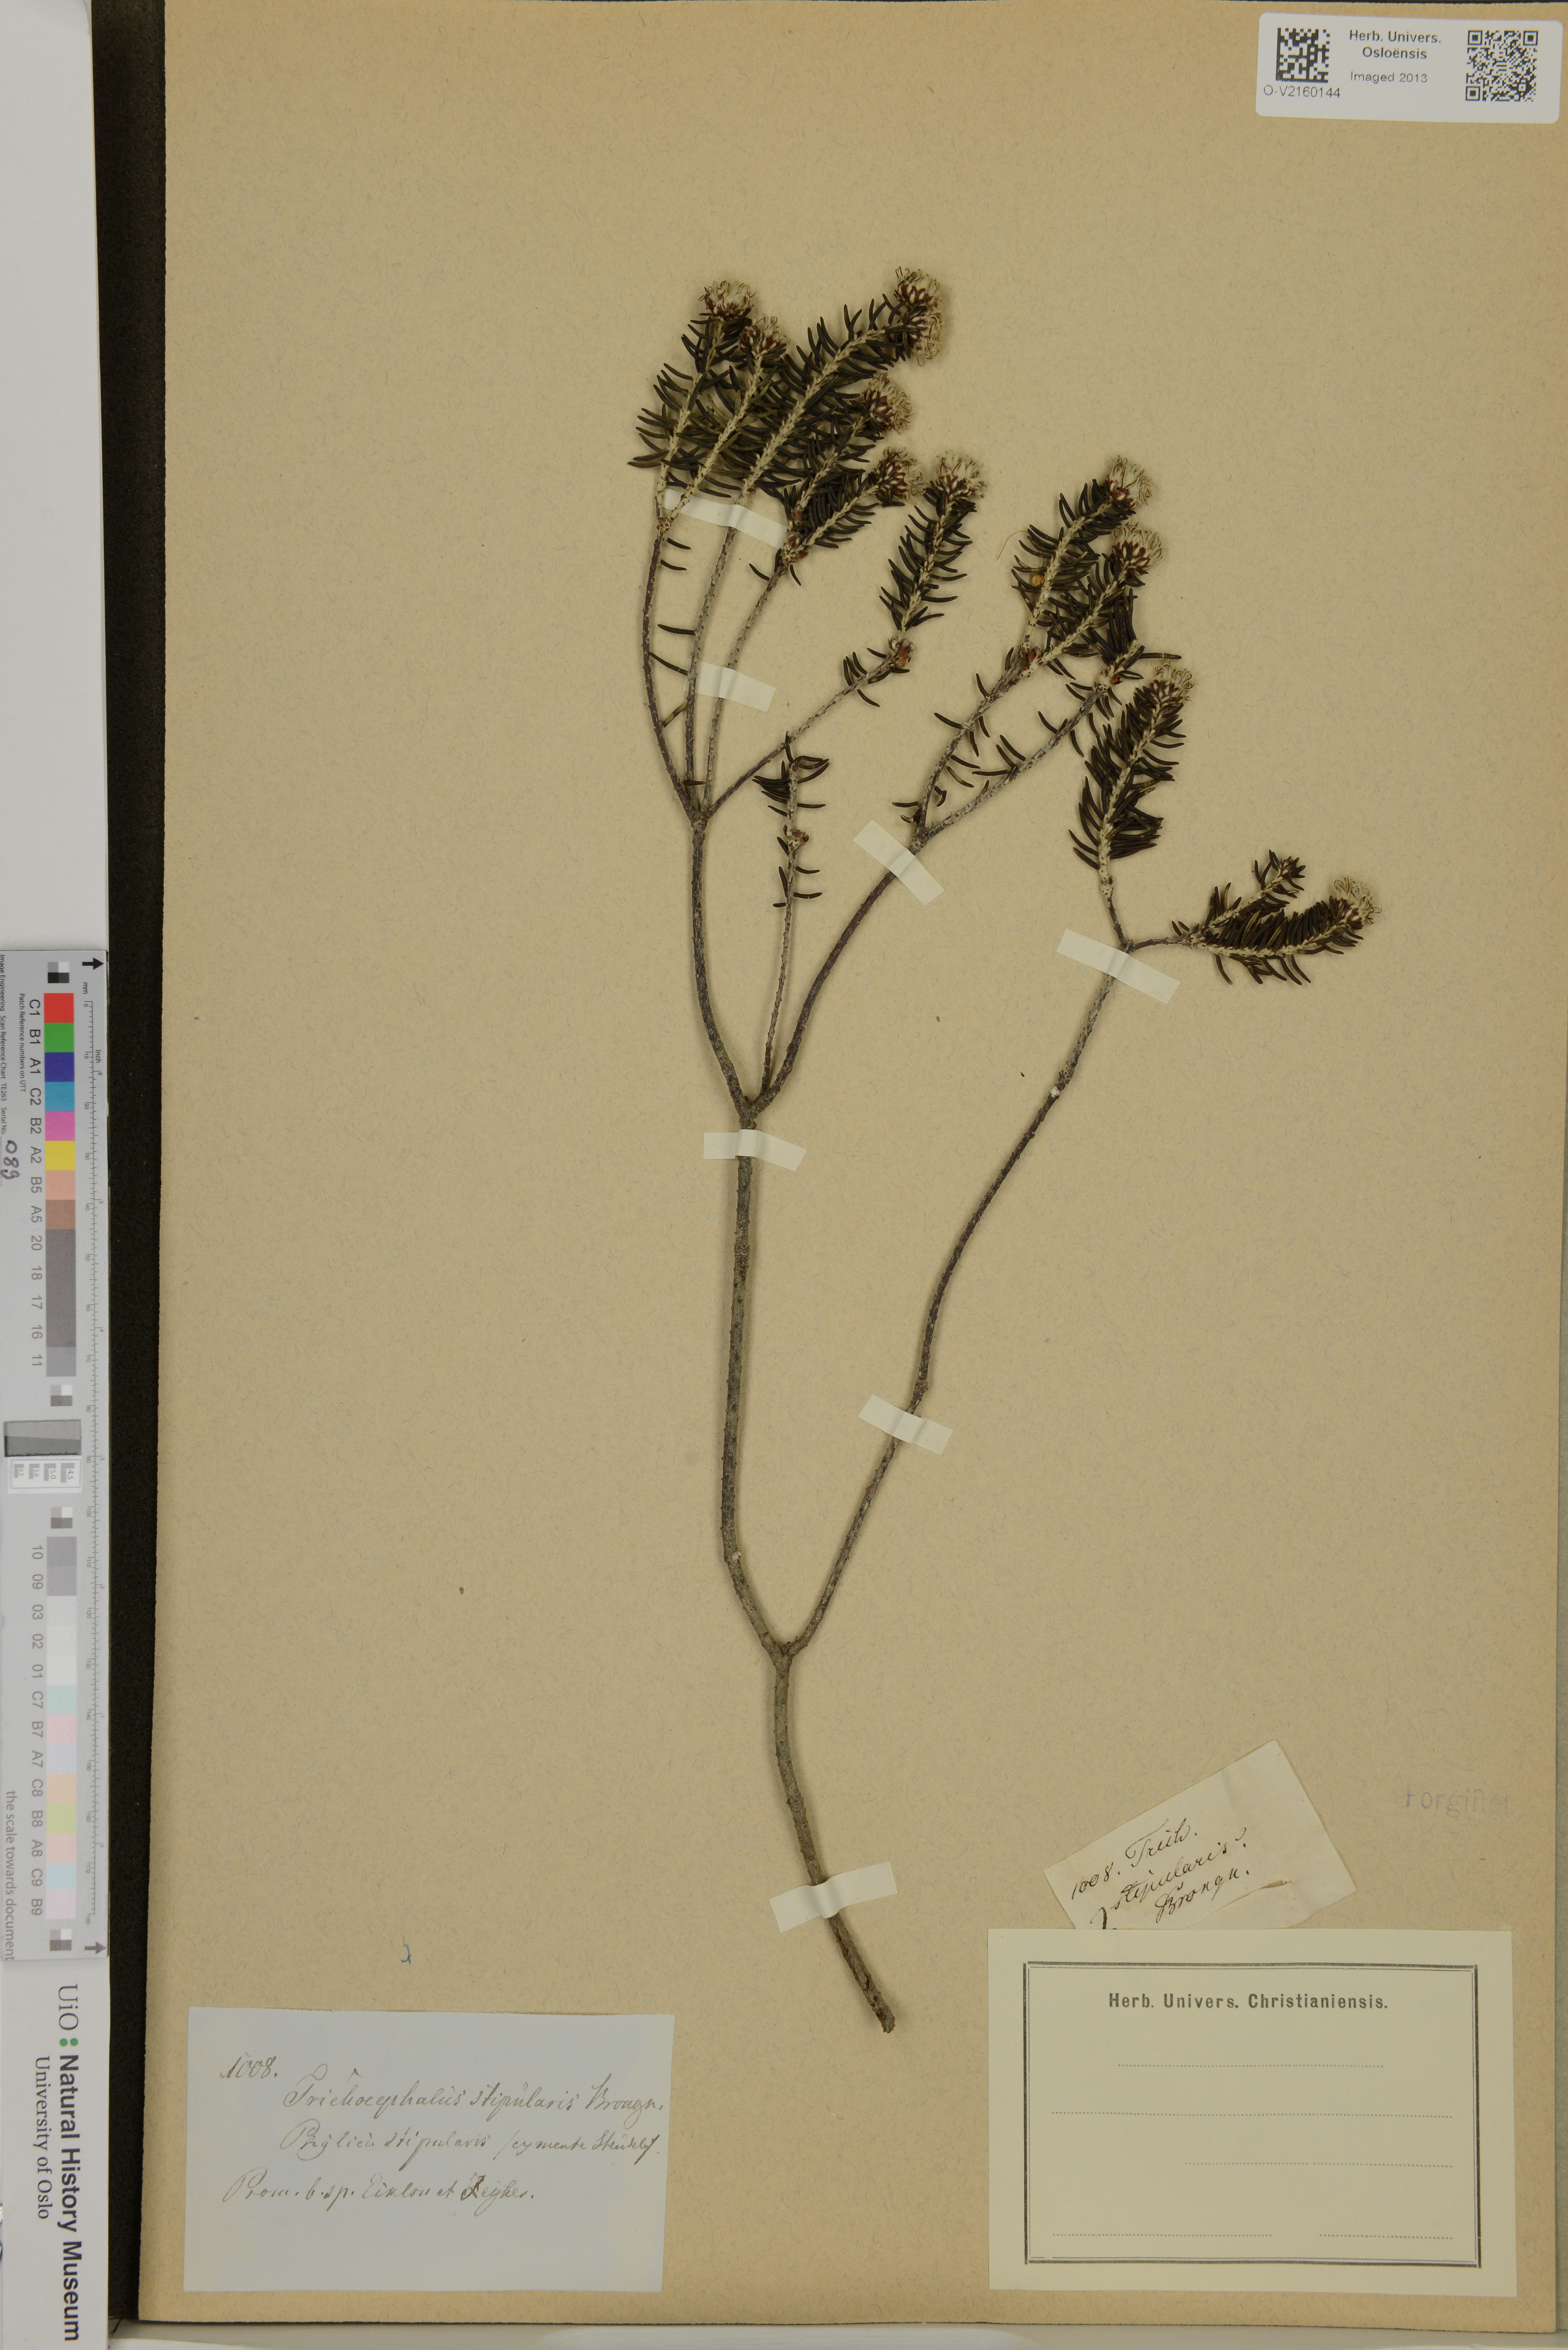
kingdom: Plantae
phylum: Tracheophyta
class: Magnoliopsida
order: Rosales
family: Rhamnaceae
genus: Trichocephalus
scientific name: Trichocephalus stipularis
